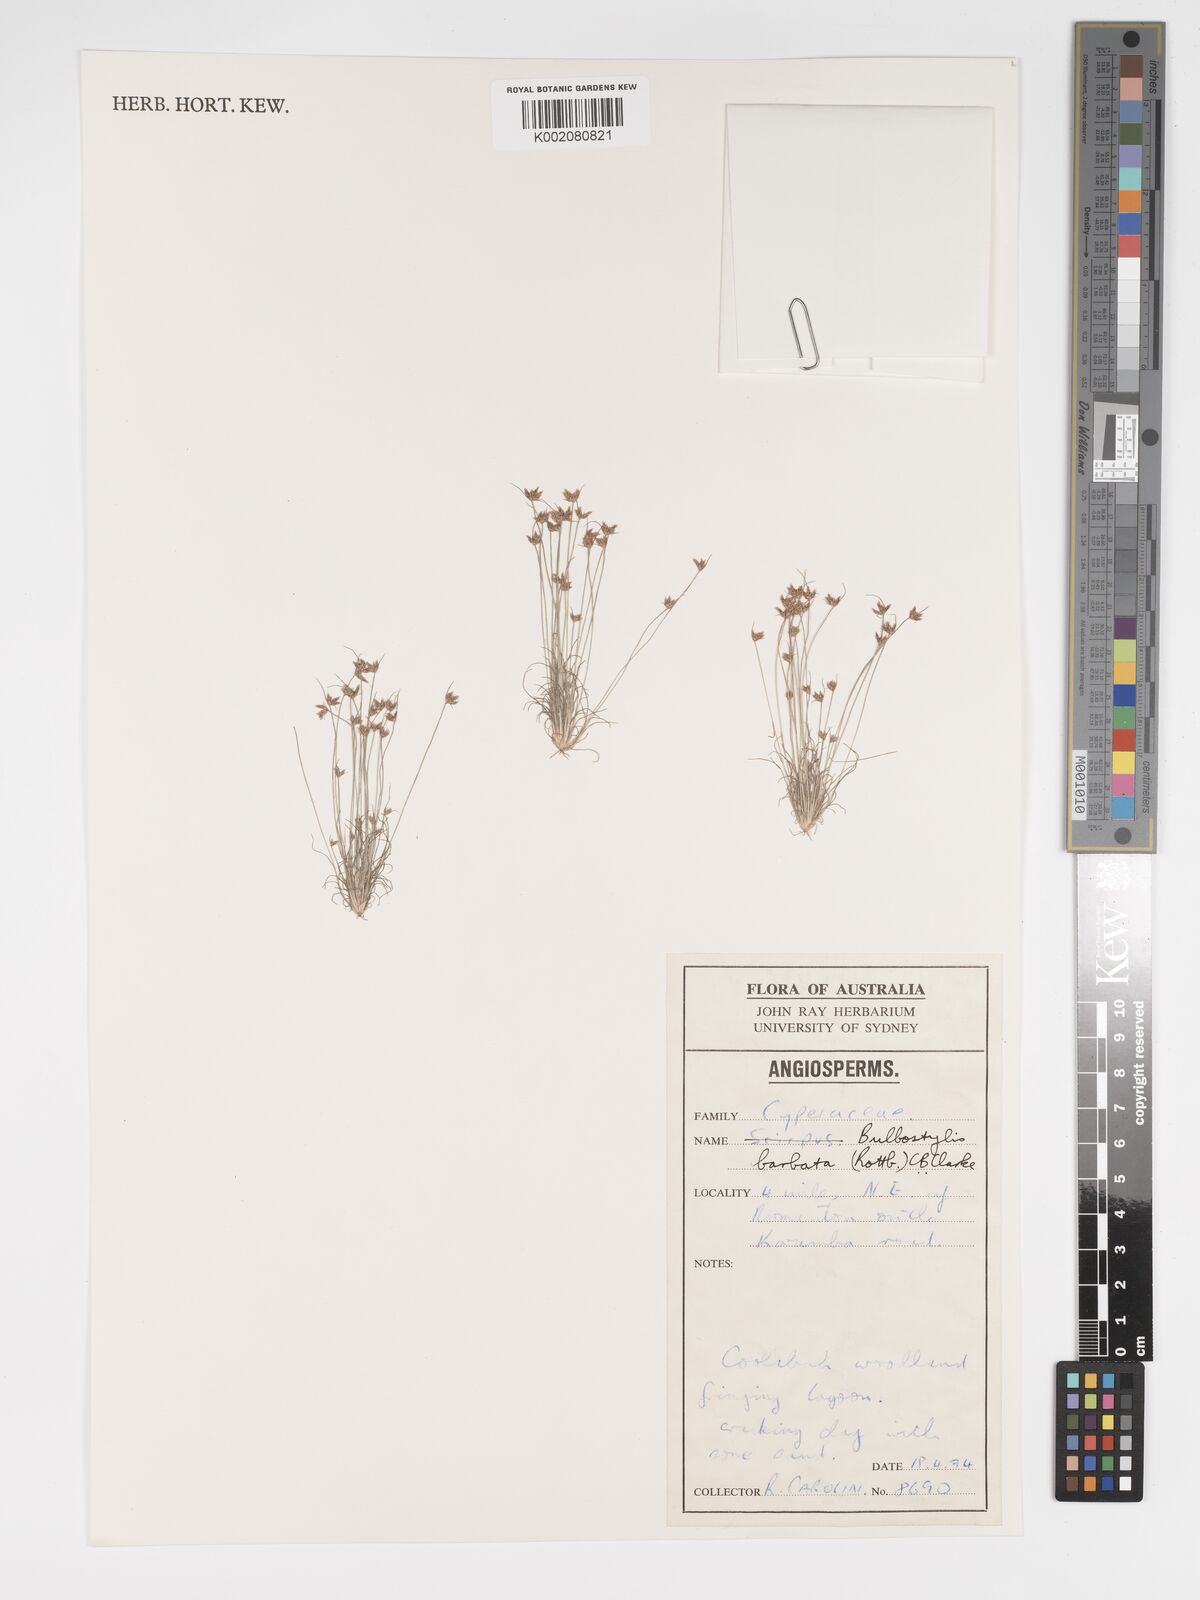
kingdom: Plantae
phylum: Tracheophyta
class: Liliopsida
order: Poales
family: Cyperaceae
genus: Bulbostylis
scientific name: Bulbostylis barbata
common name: Watergrass
